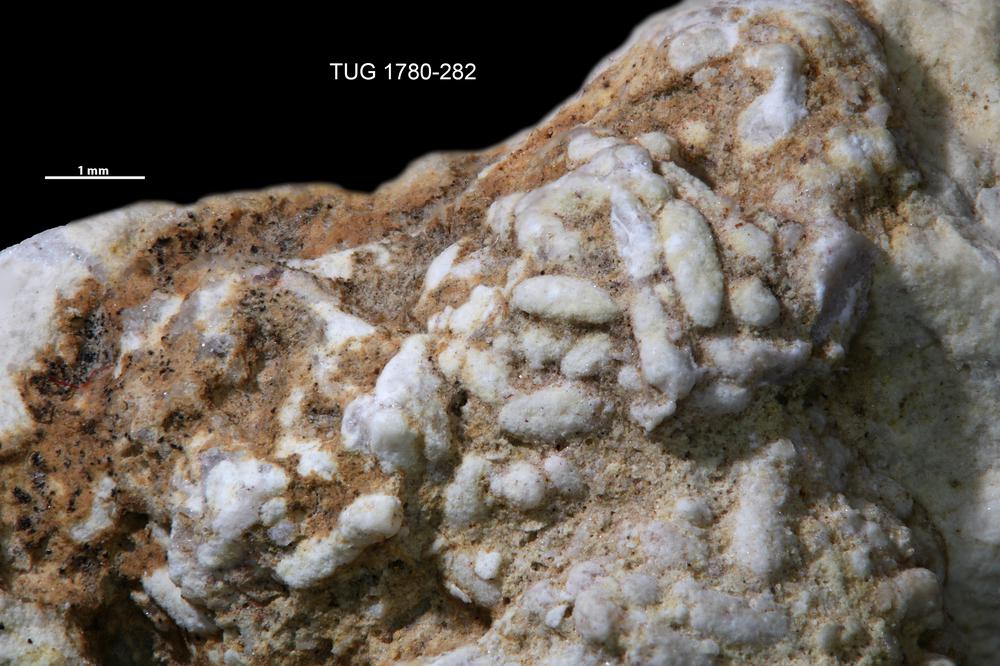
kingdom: Animalia
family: Coprulidae
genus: Coprulus
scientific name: Coprulus
